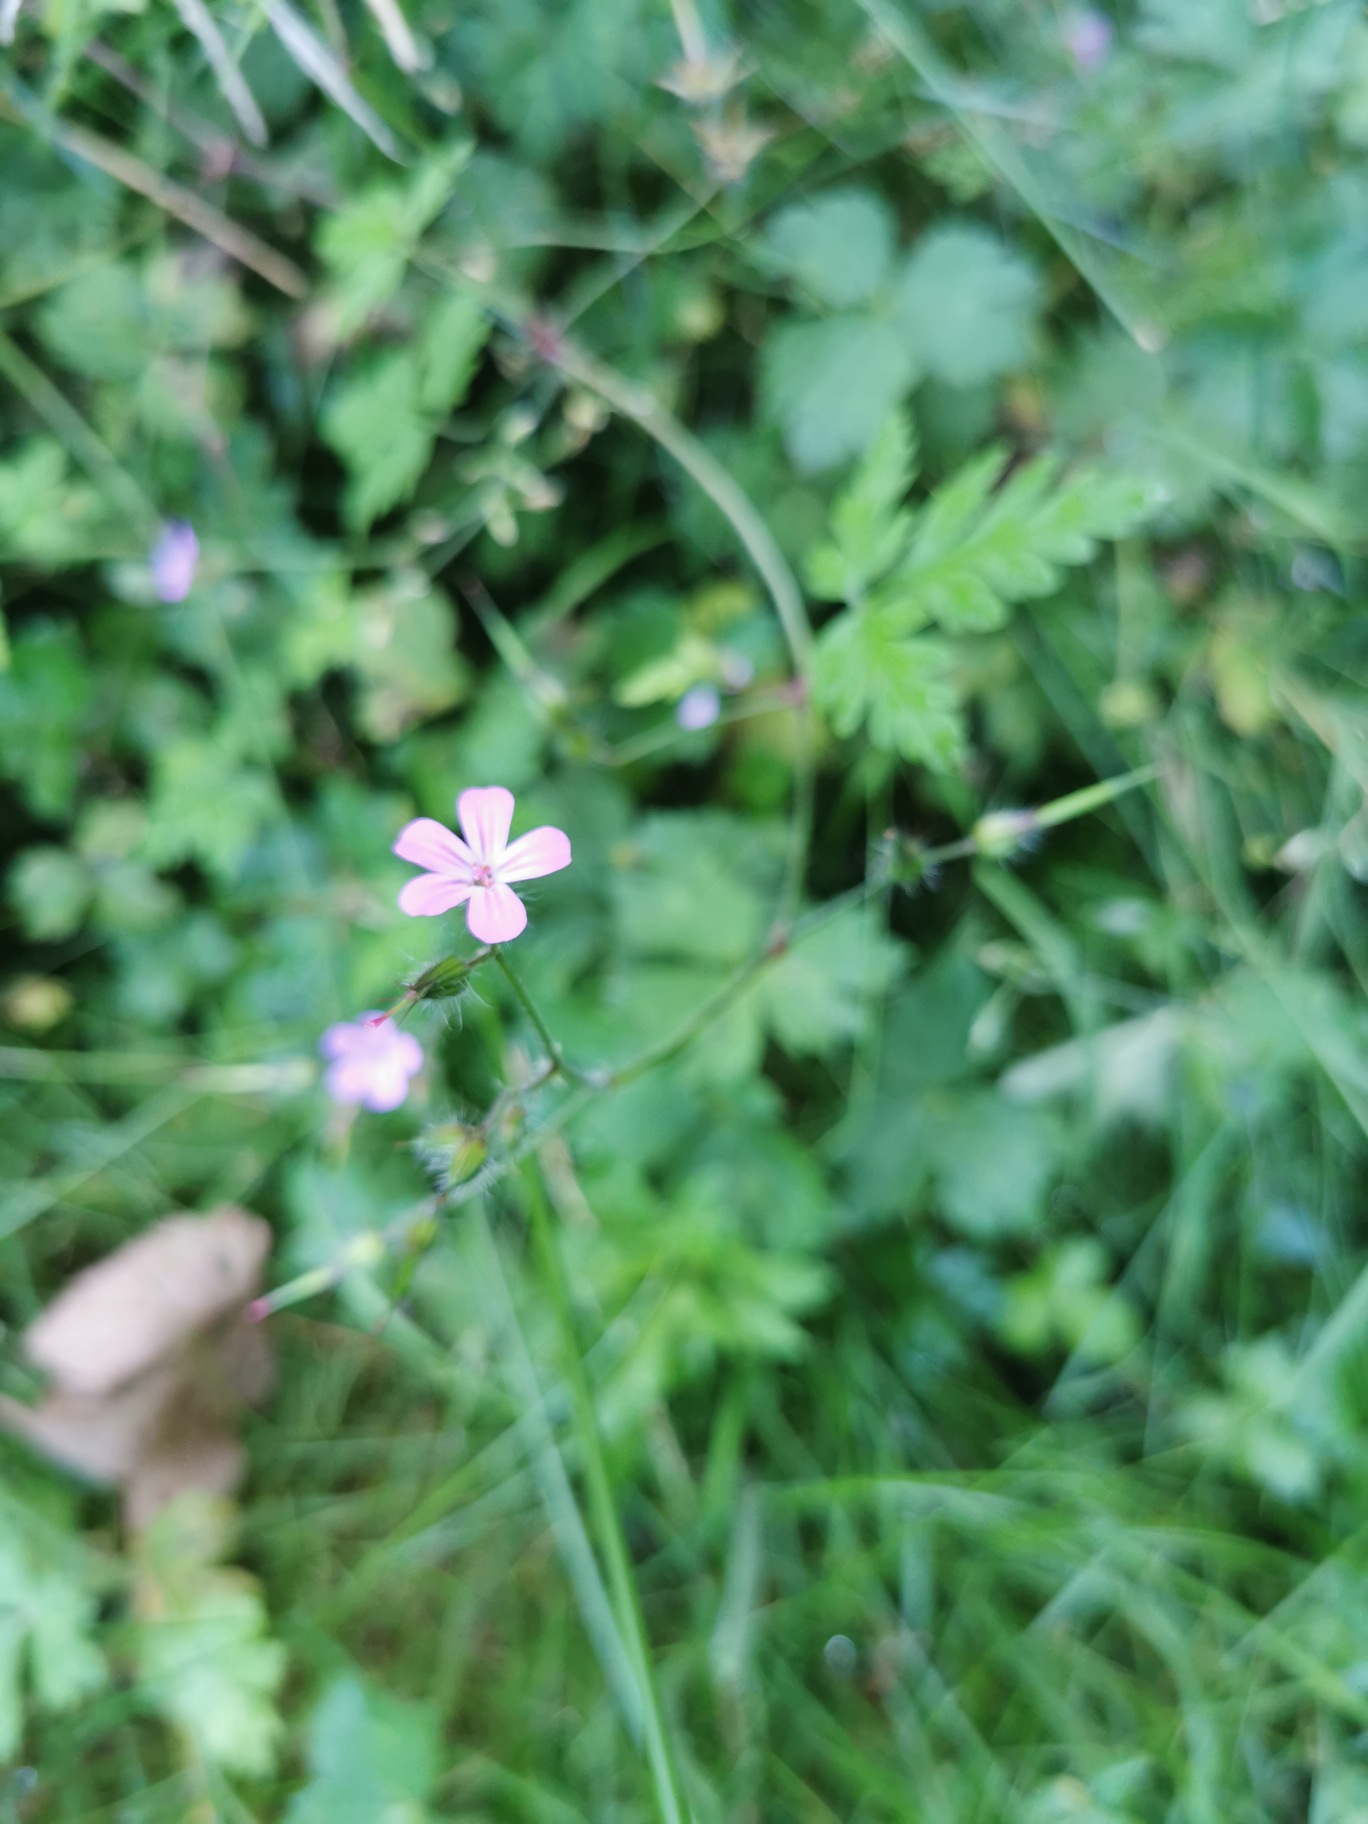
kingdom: Plantae
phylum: Tracheophyta
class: Magnoliopsida
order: Geraniales
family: Geraniaceae
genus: Geranium
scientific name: Geranium robertianum
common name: Stinkende storkenæb
